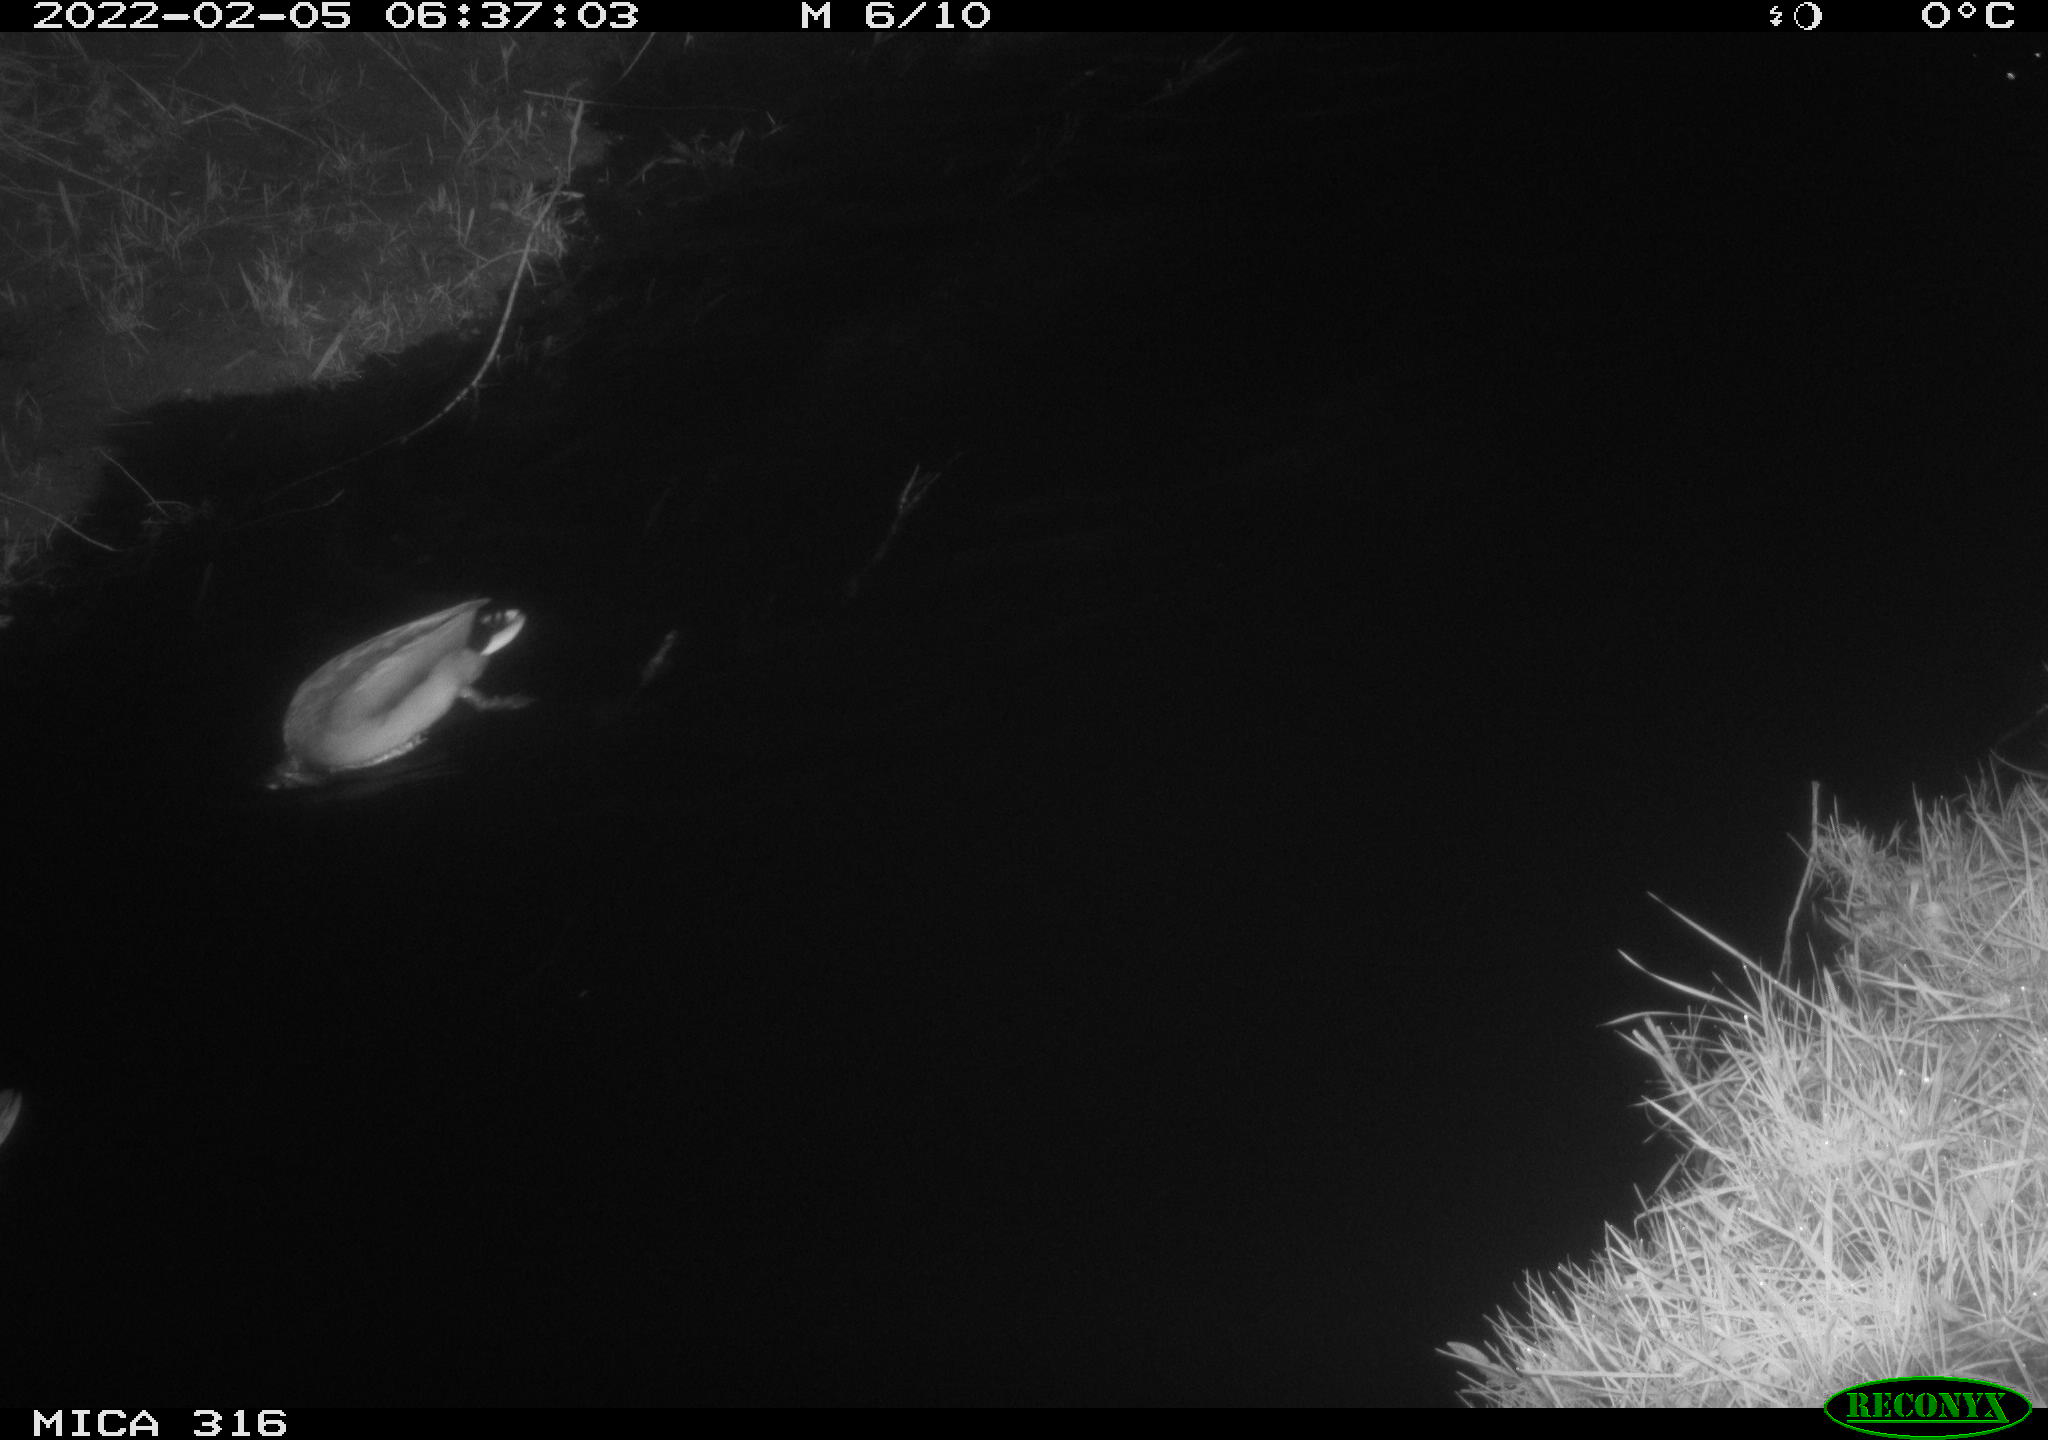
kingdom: Animalia
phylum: Chordata
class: Aves
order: Anseriformes
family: Anatidae
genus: Anas
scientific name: Anas platyrhynchos
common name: Mallard
